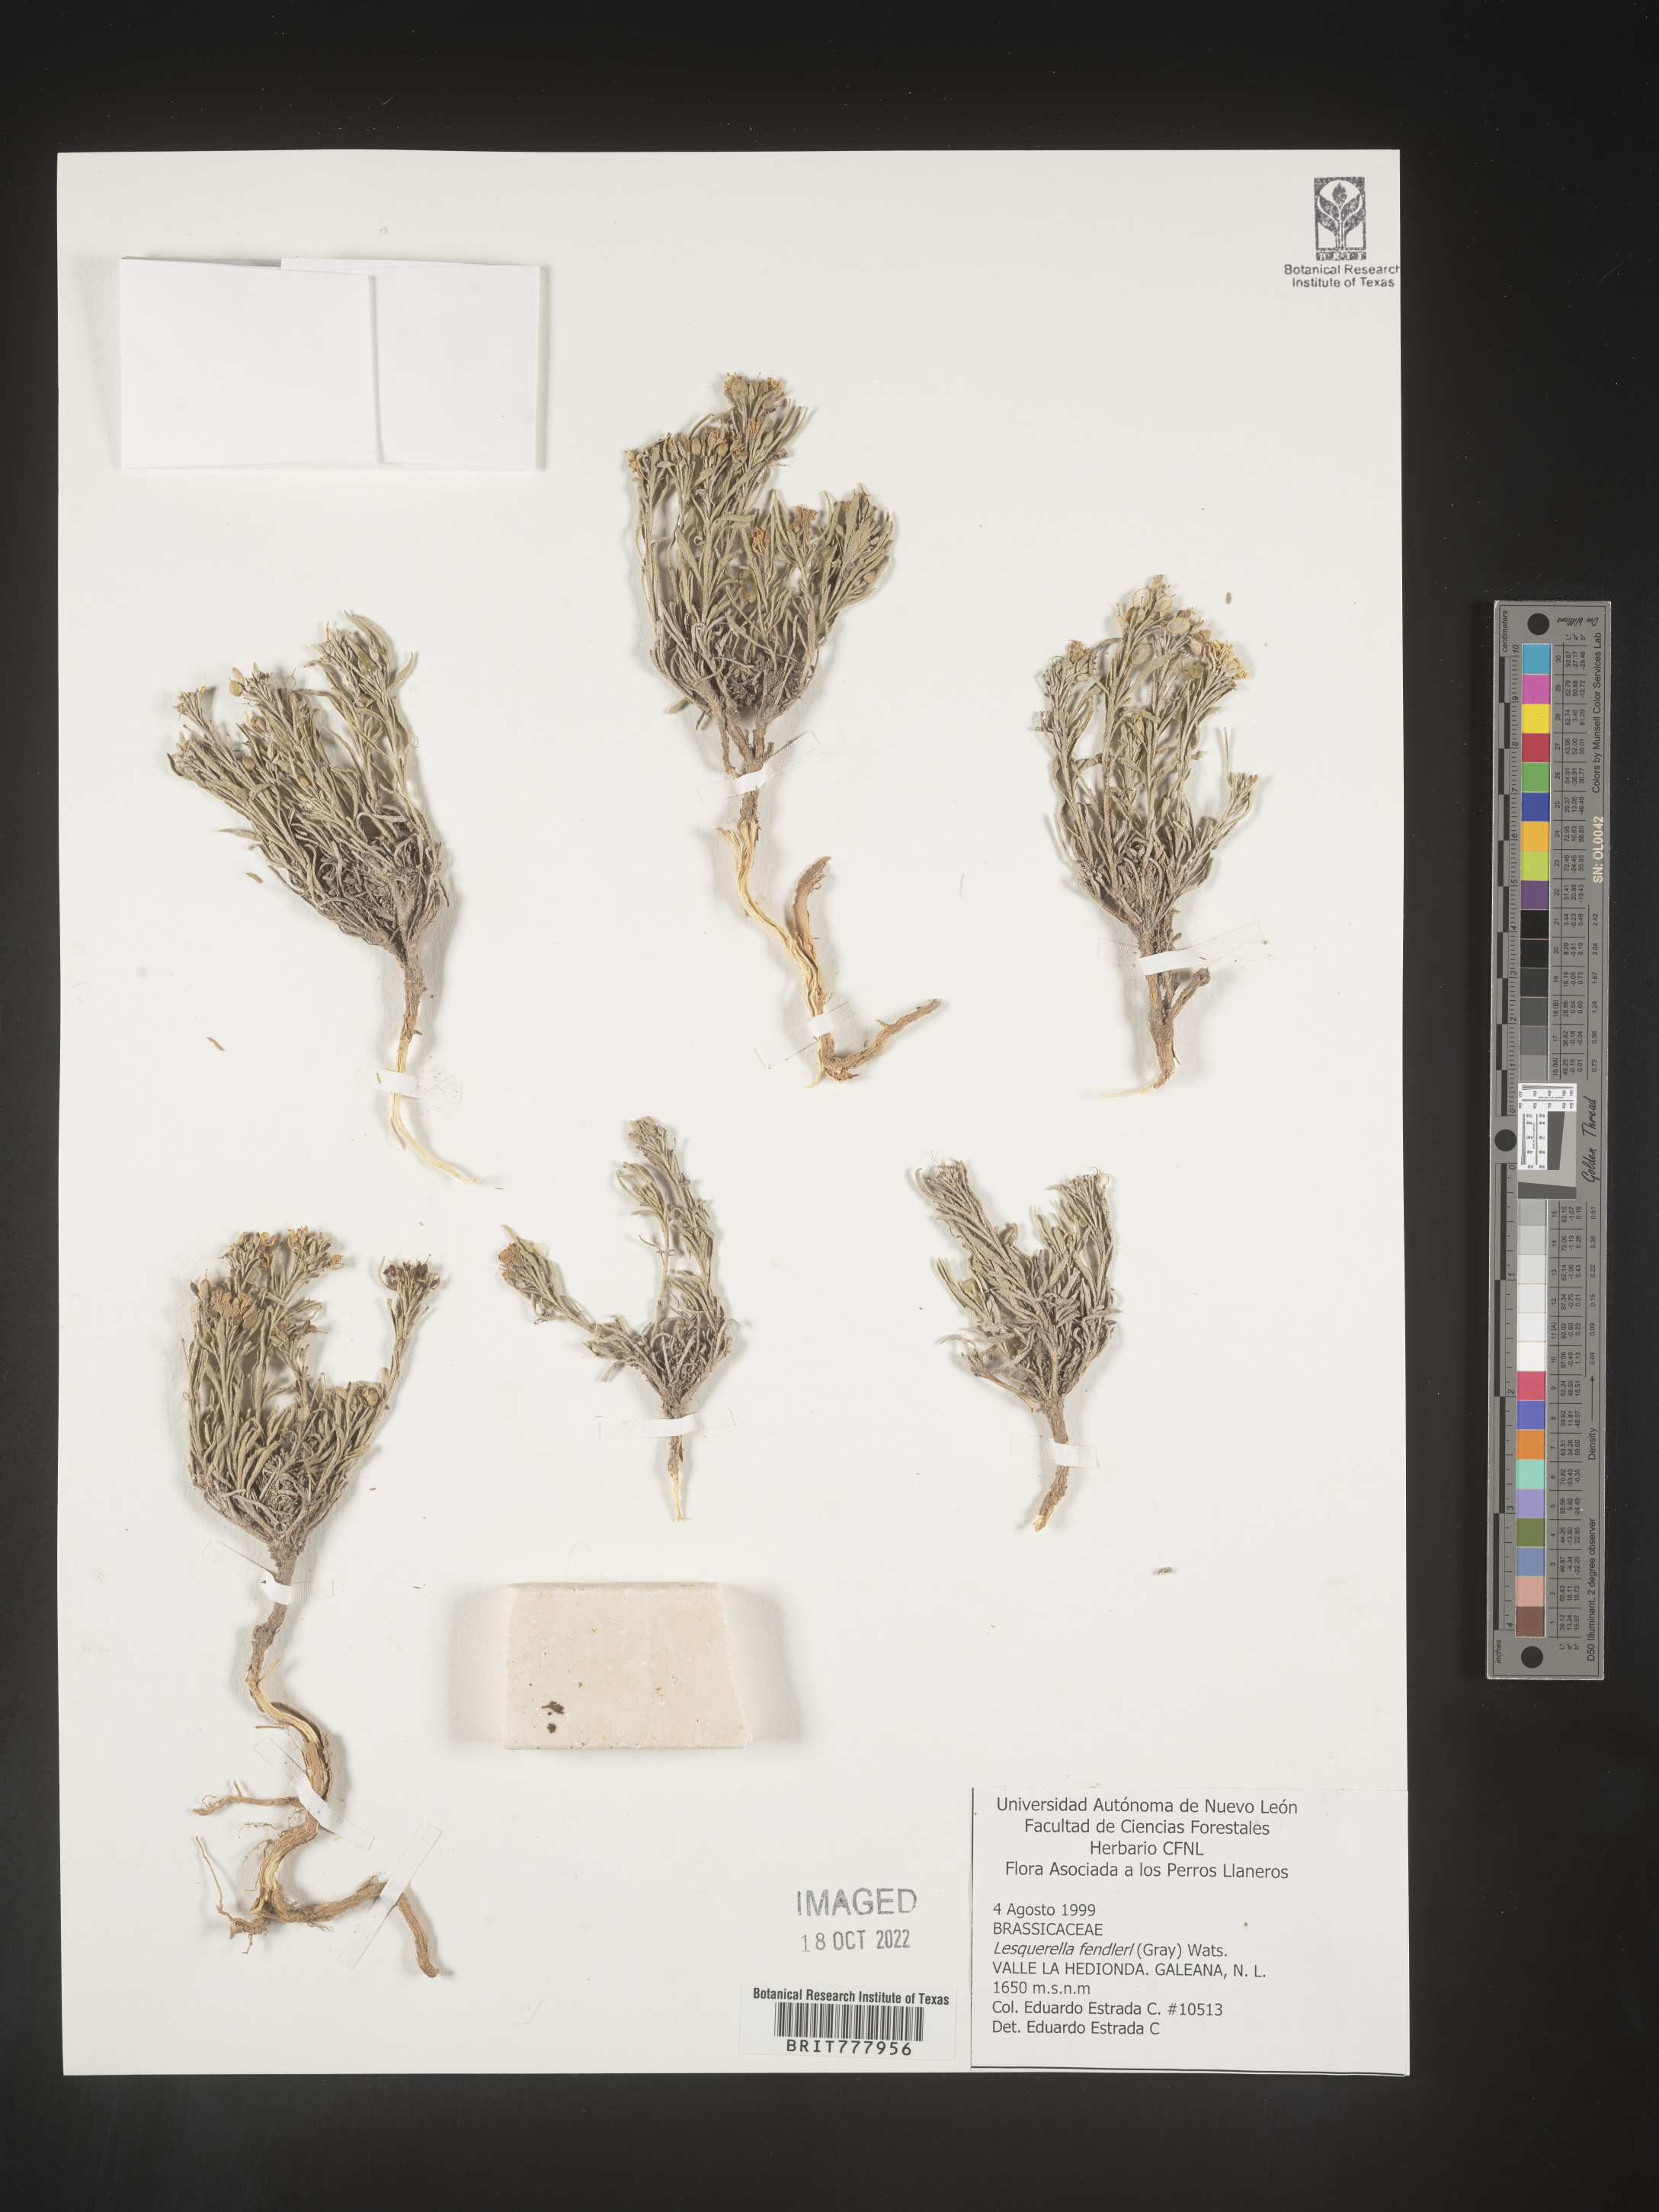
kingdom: Chromista
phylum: Cercozoa
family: Psammonobiotidae
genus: Lesquerella
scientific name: Lesquerella
